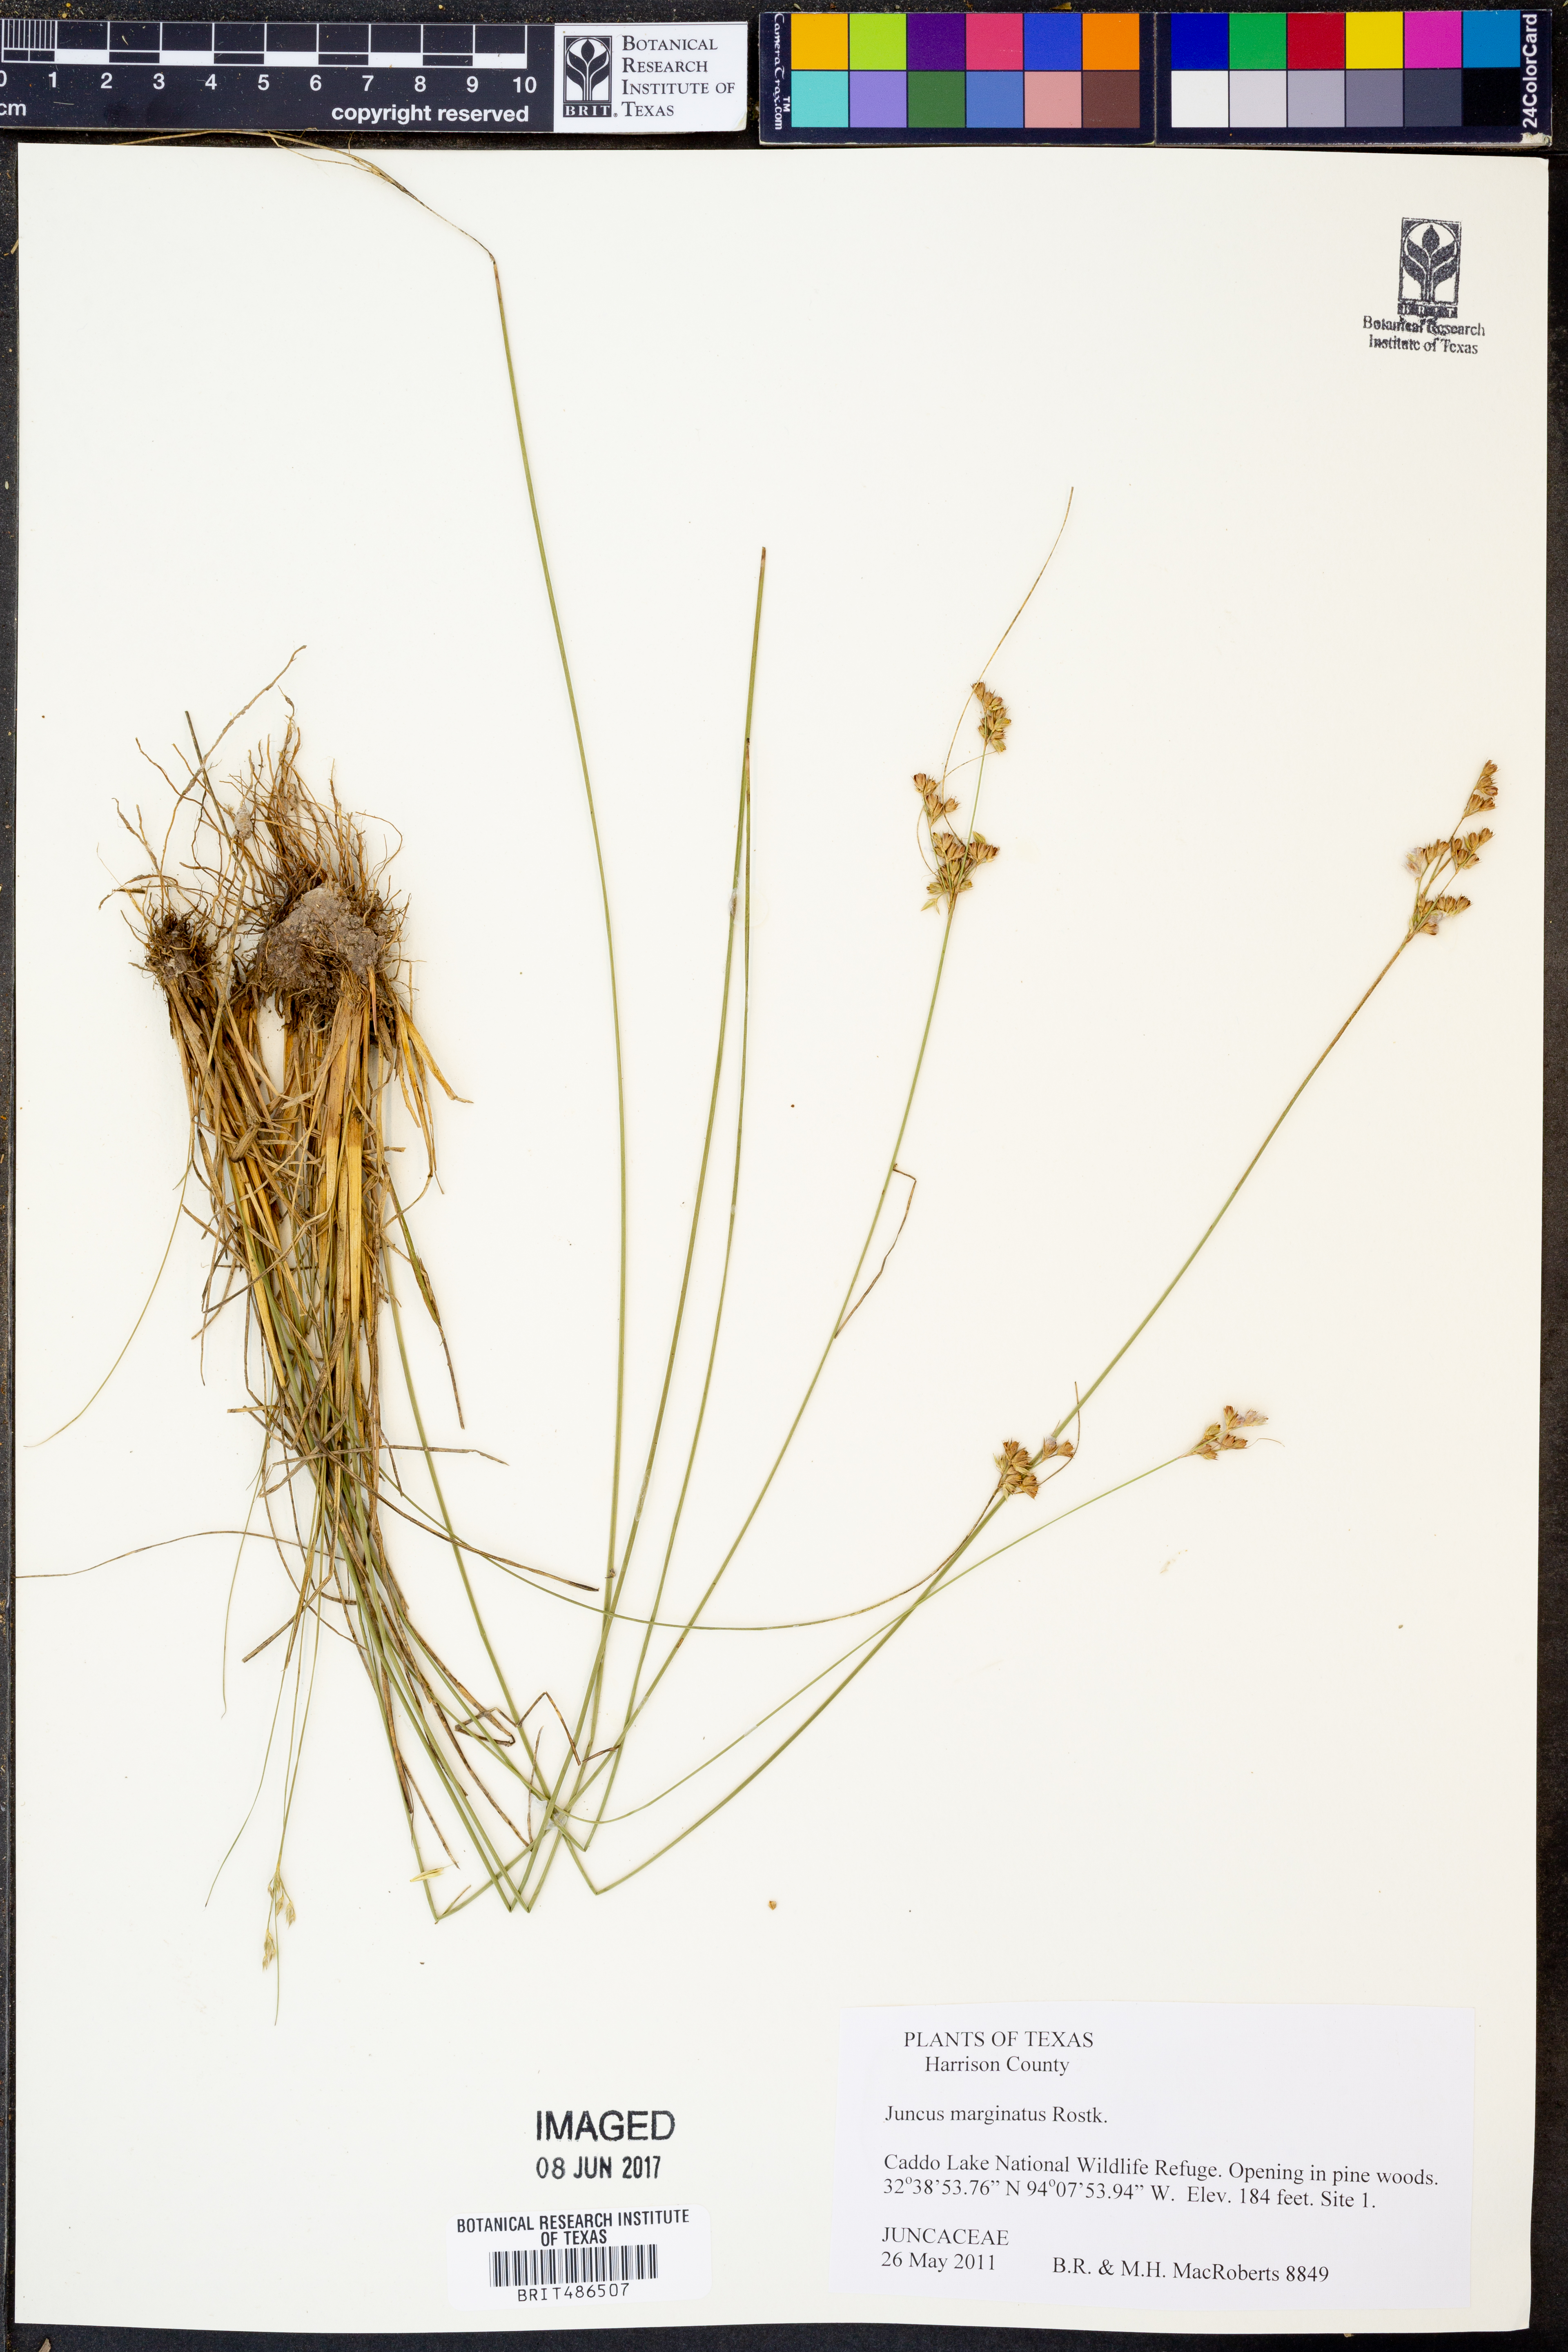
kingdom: Plantae
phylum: Tracheophyta
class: Liliopsida
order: Poales
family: Juncaceae
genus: Juncus
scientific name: Juncus marginatus
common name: Grass-leaf rush
